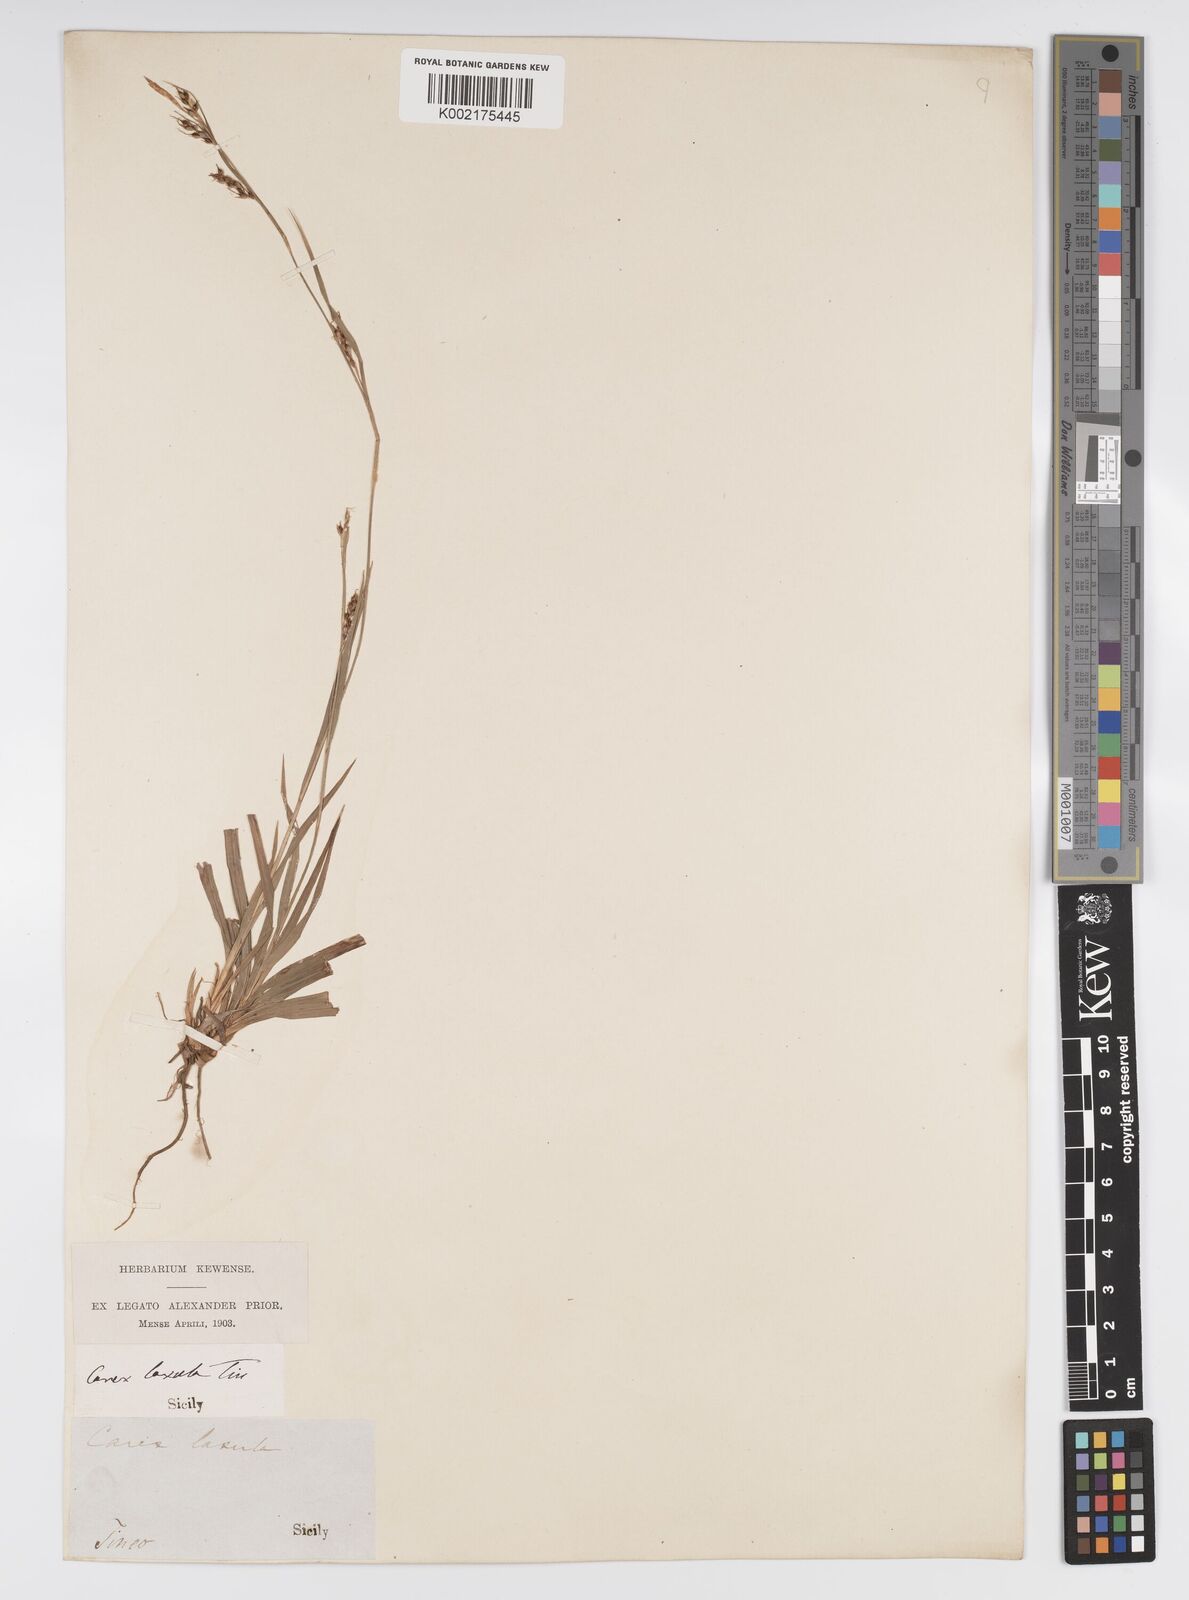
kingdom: Plantae
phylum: Tracheophyta
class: Liliopsida
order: Poales
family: Cyperaceae
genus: Carex
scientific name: Carex sylvatica
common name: Wood-sedge
